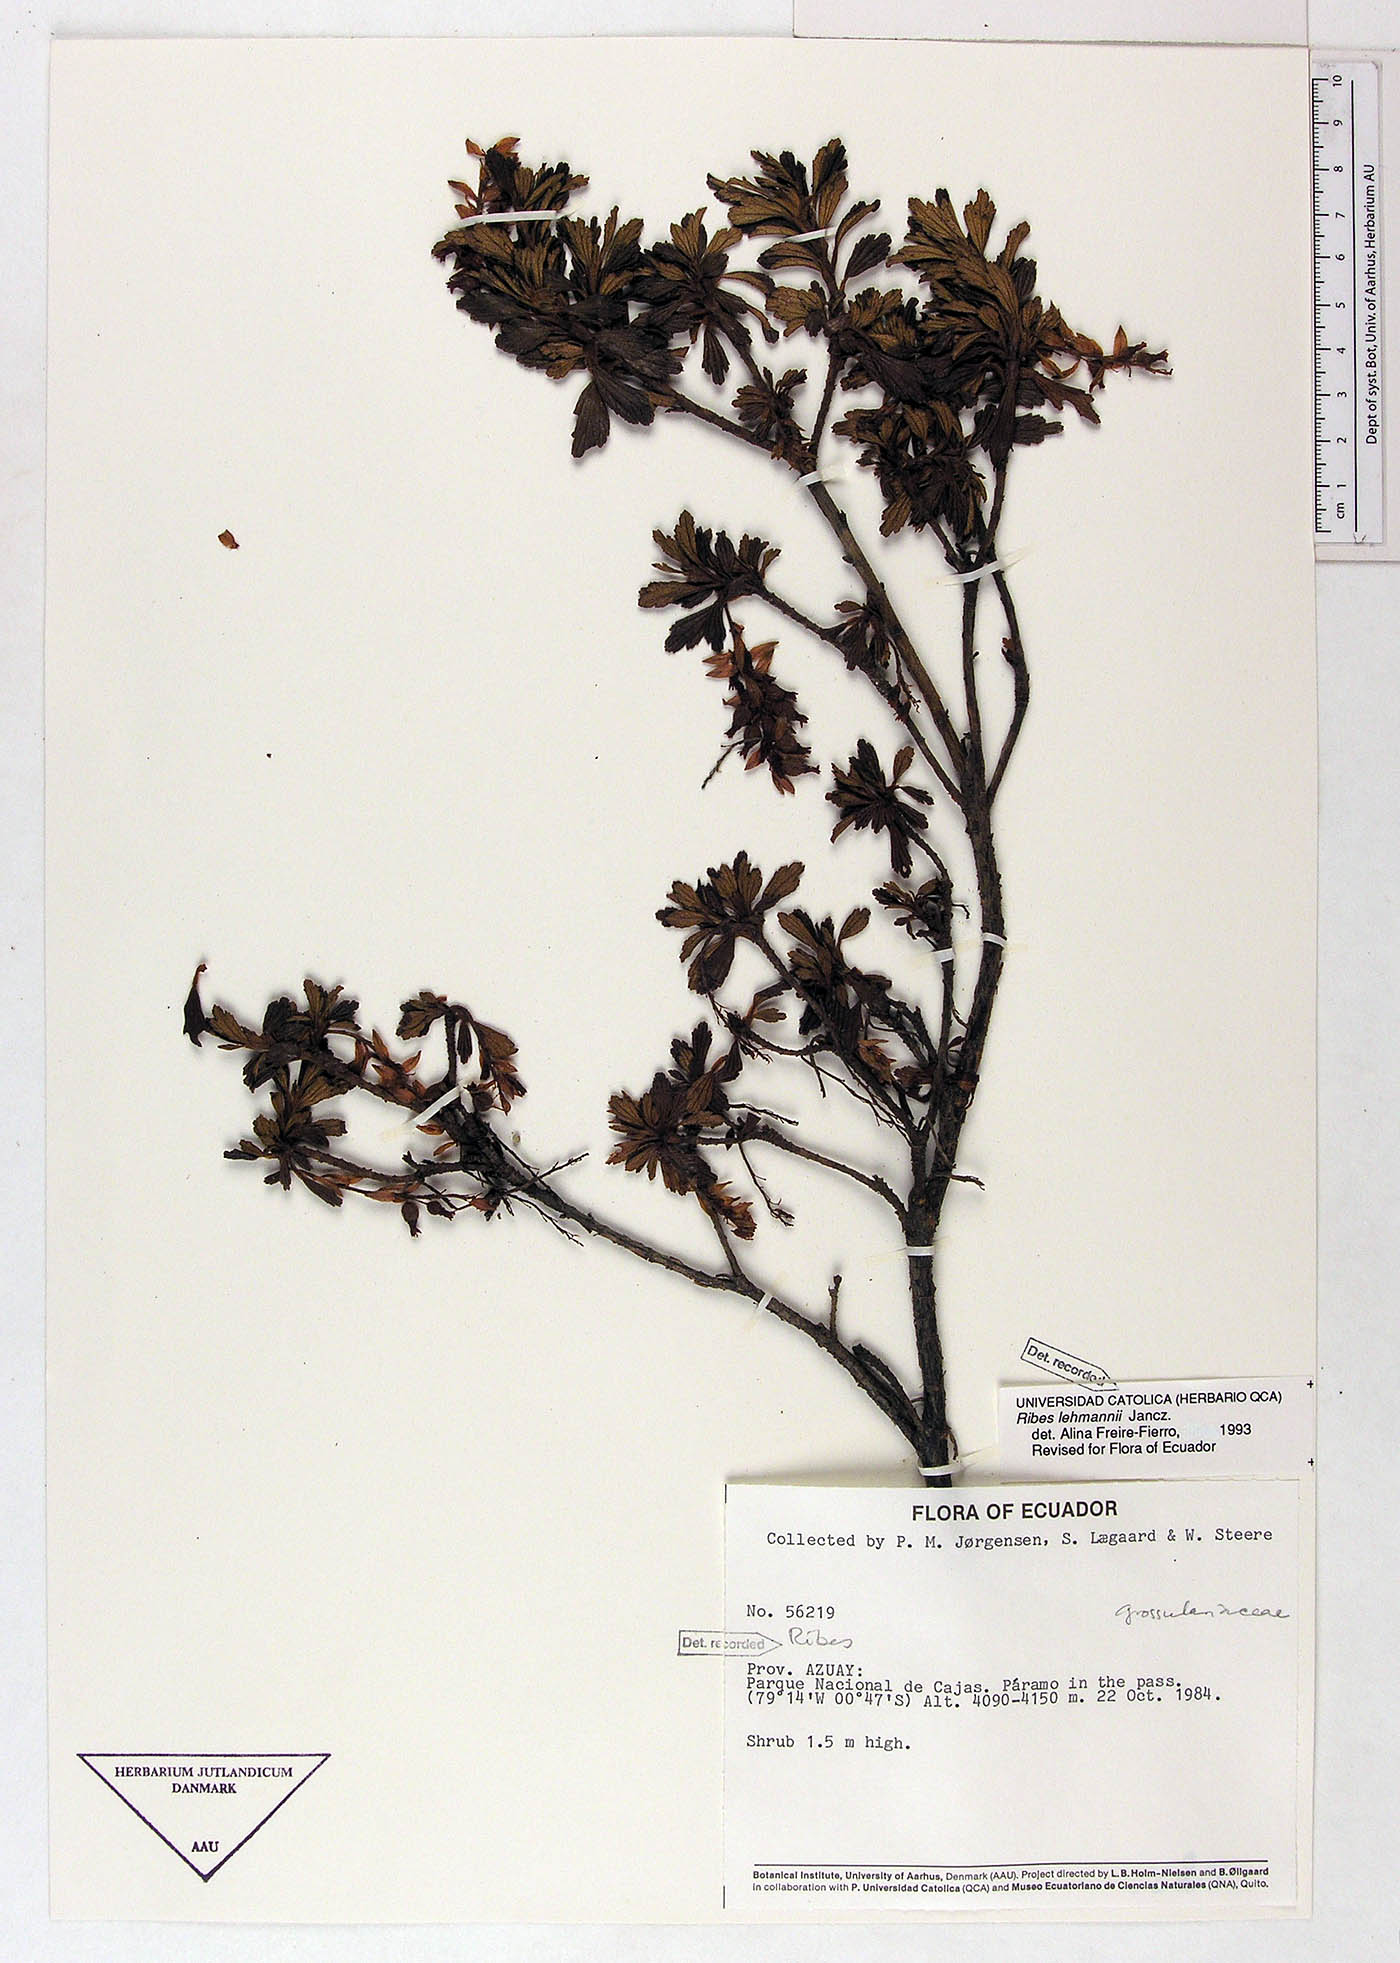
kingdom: Plantae
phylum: Tracheophyta
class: Magnoliopsida
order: Saxifragales
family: Grossulariaceae
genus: Ribes
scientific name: Ribes lehmannii
